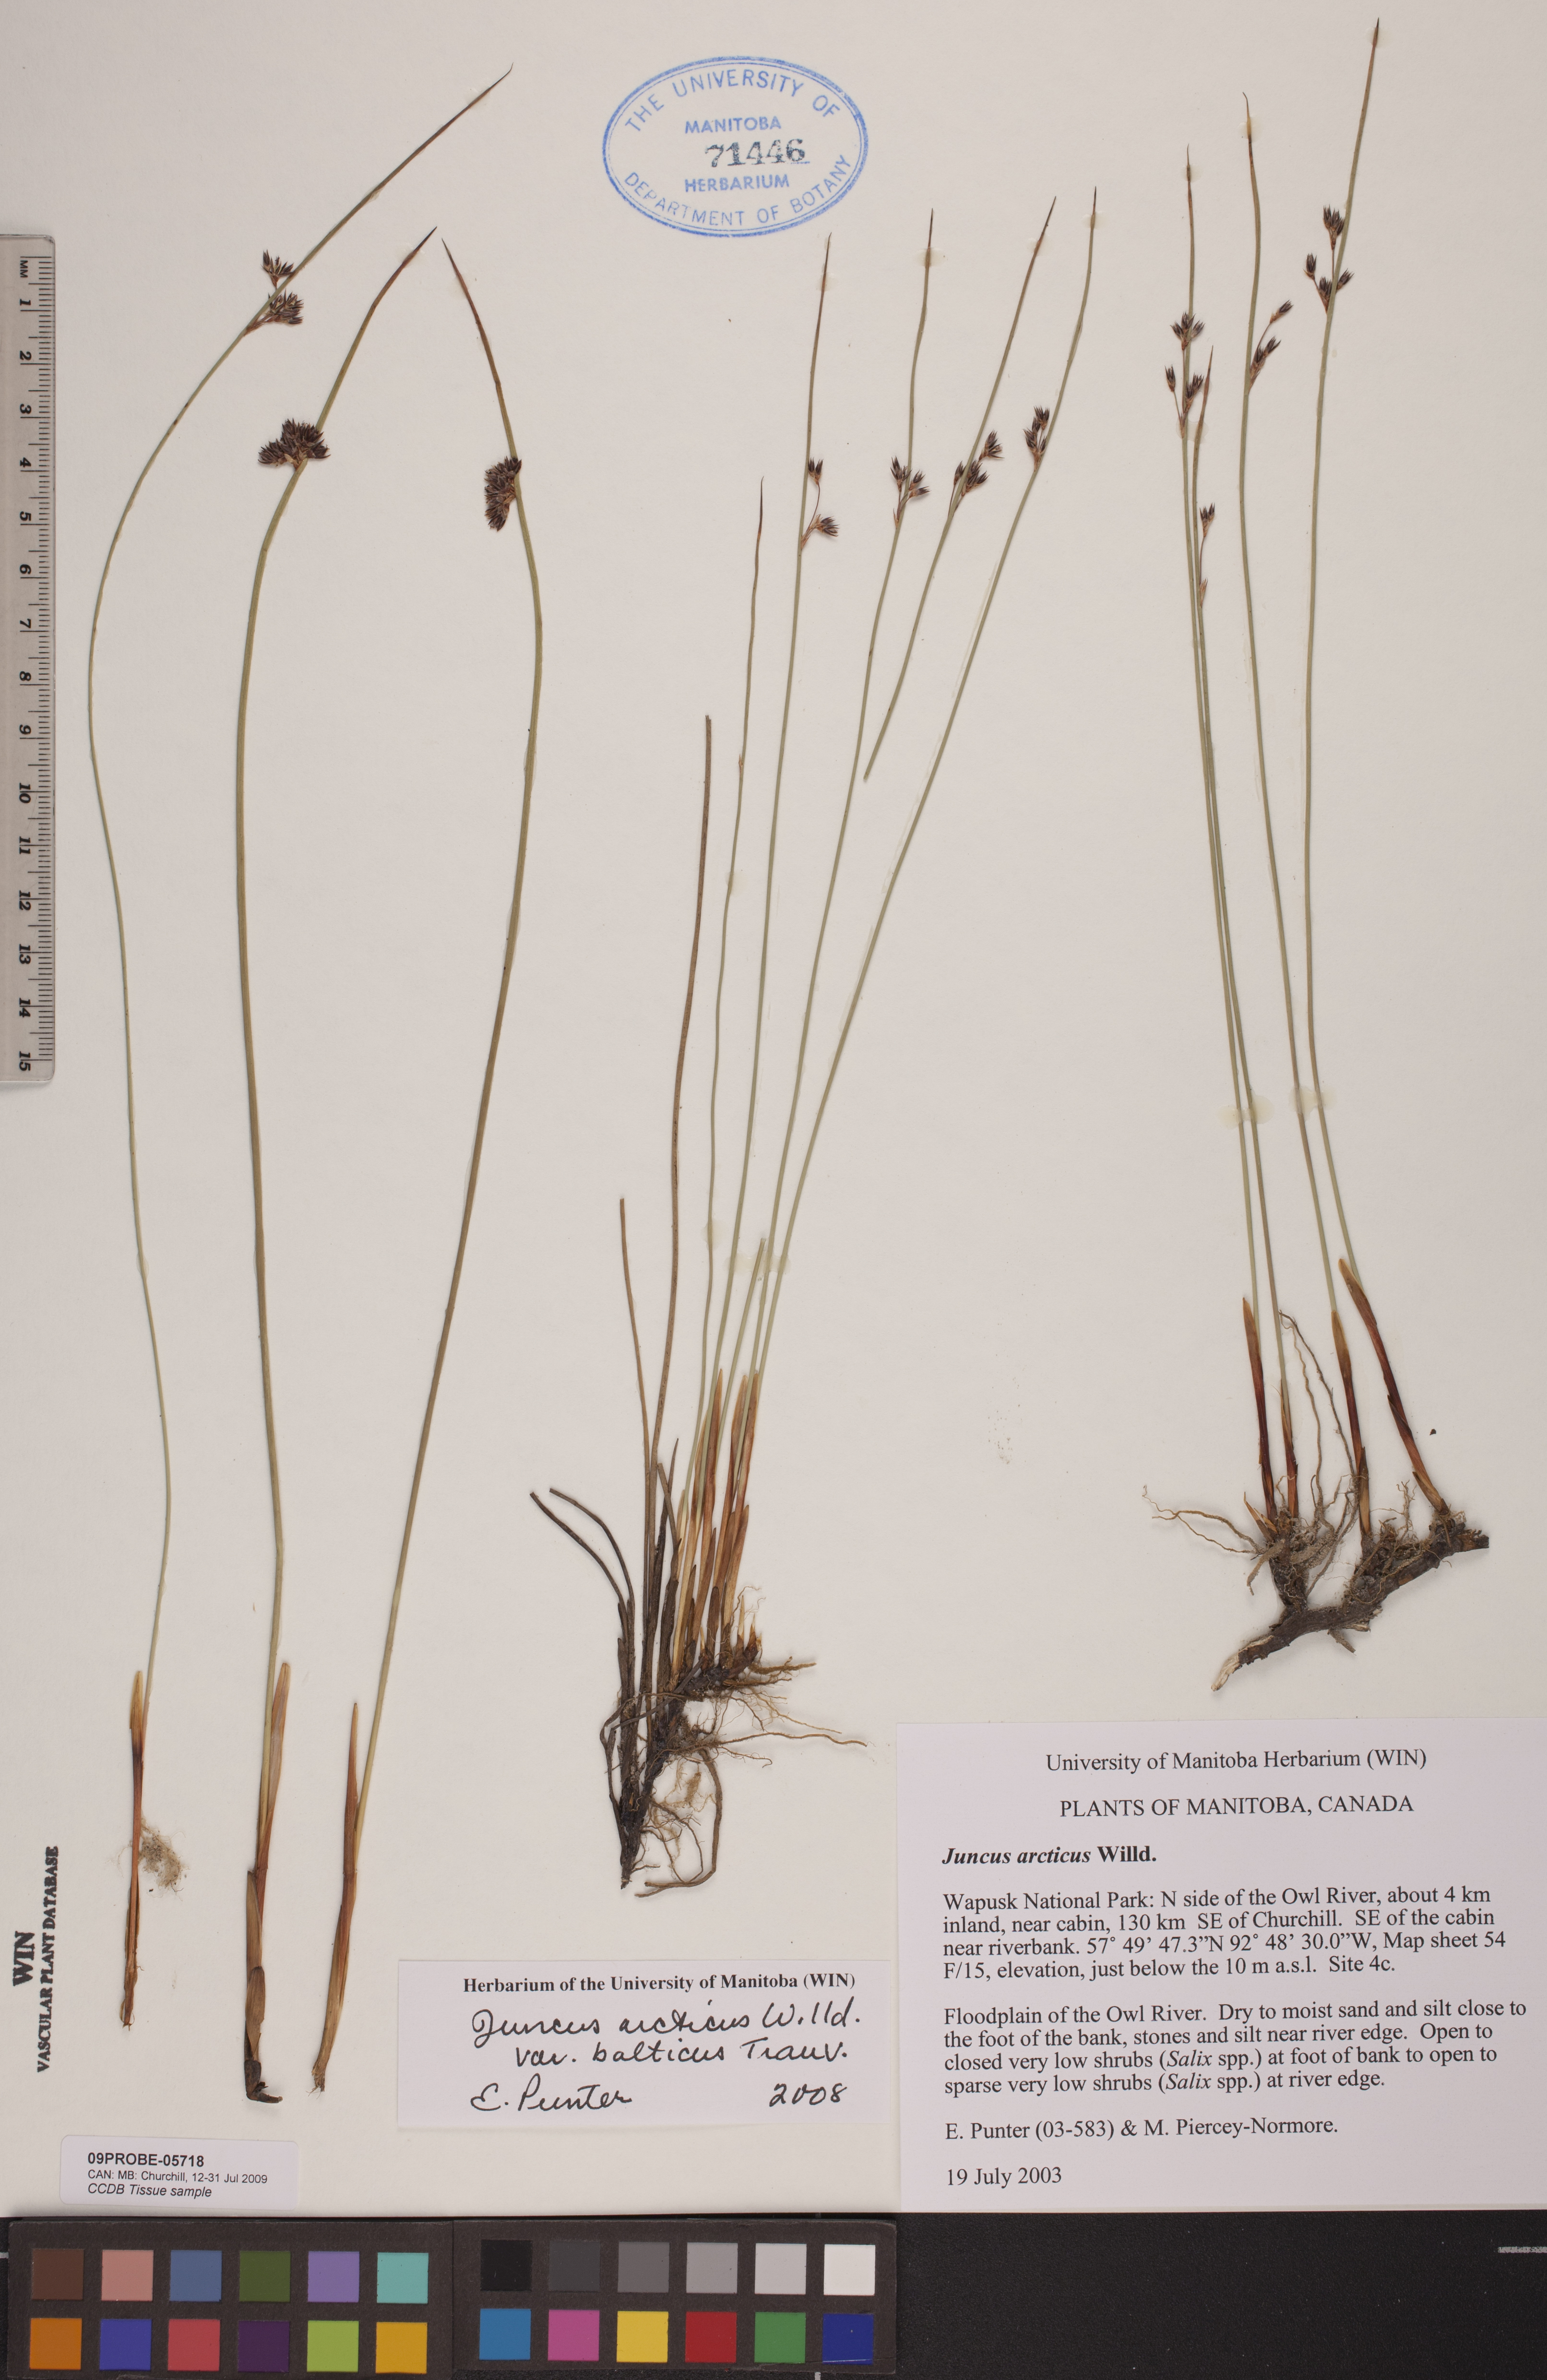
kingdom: Plantae
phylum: Tracheophyta
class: Liliopsida
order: Poales
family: Juncaceae
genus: Juncus
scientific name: Juncus balticus
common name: Baltic rush
